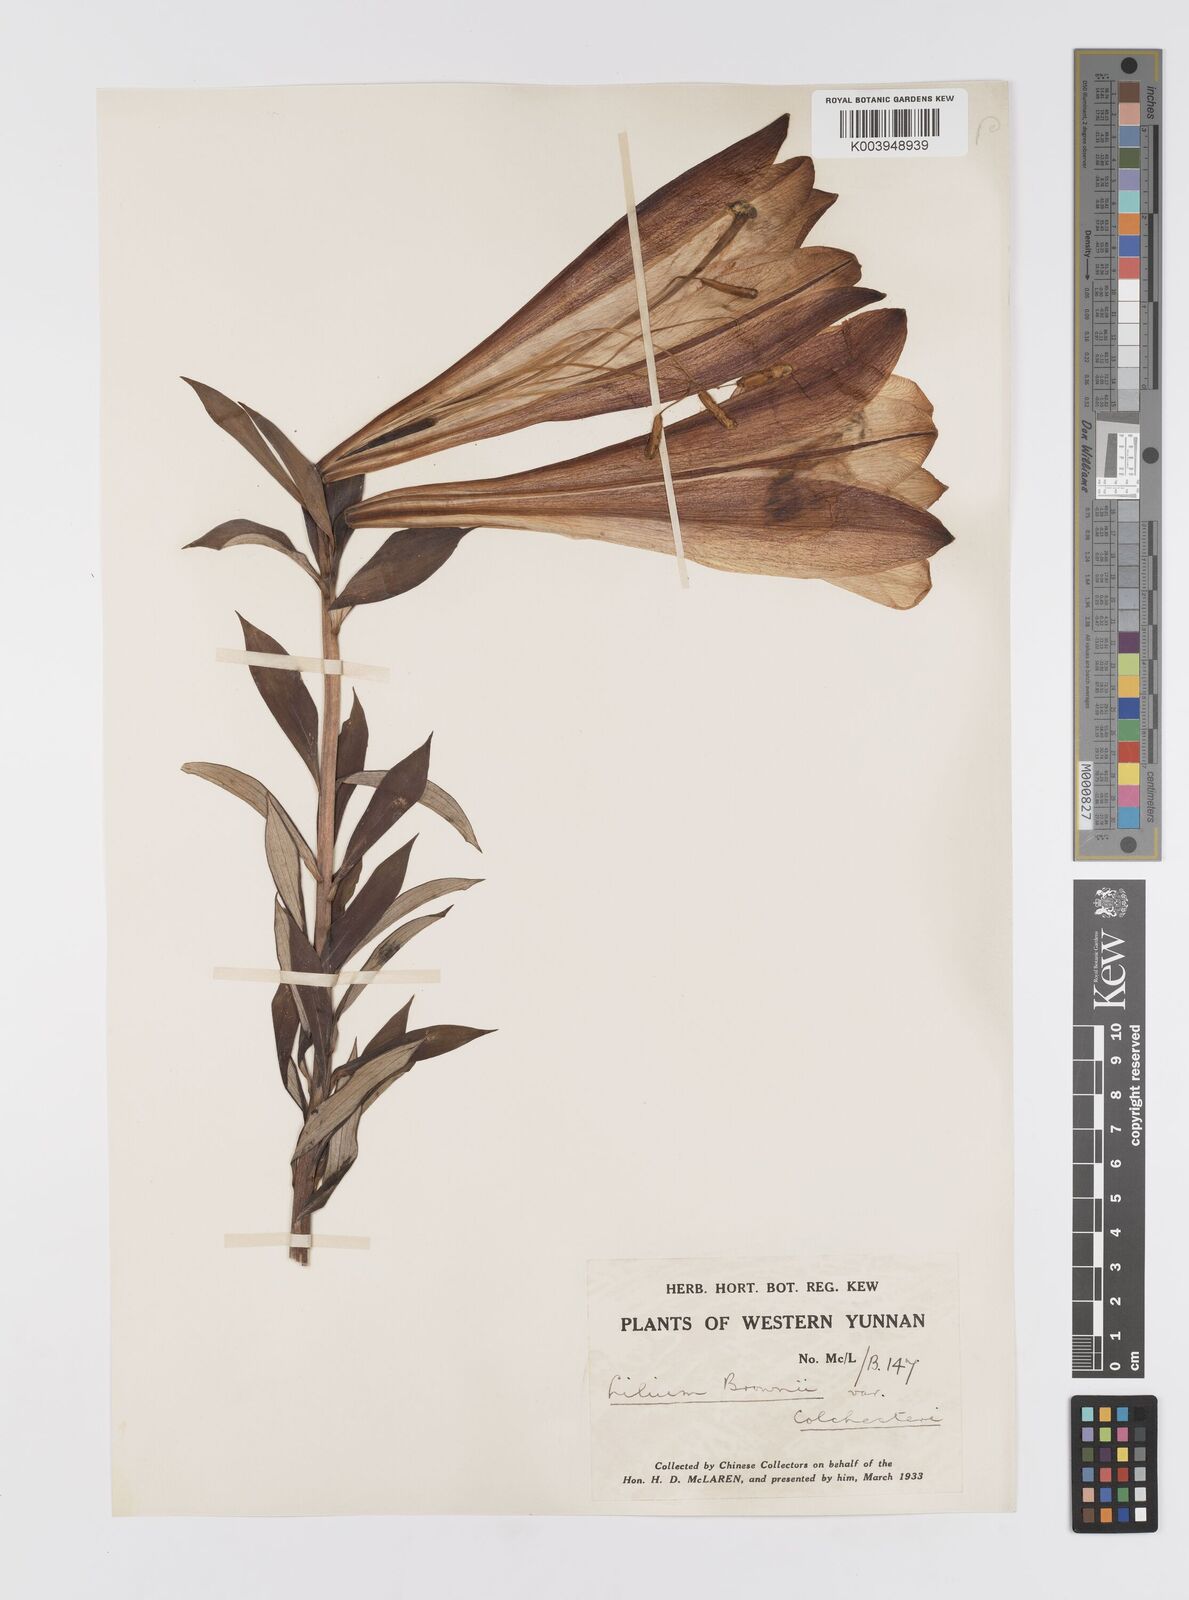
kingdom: Plantae
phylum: Tracheophyta
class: Liliopsida
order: Liliales
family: Liliaceae
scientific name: Liliaceae
